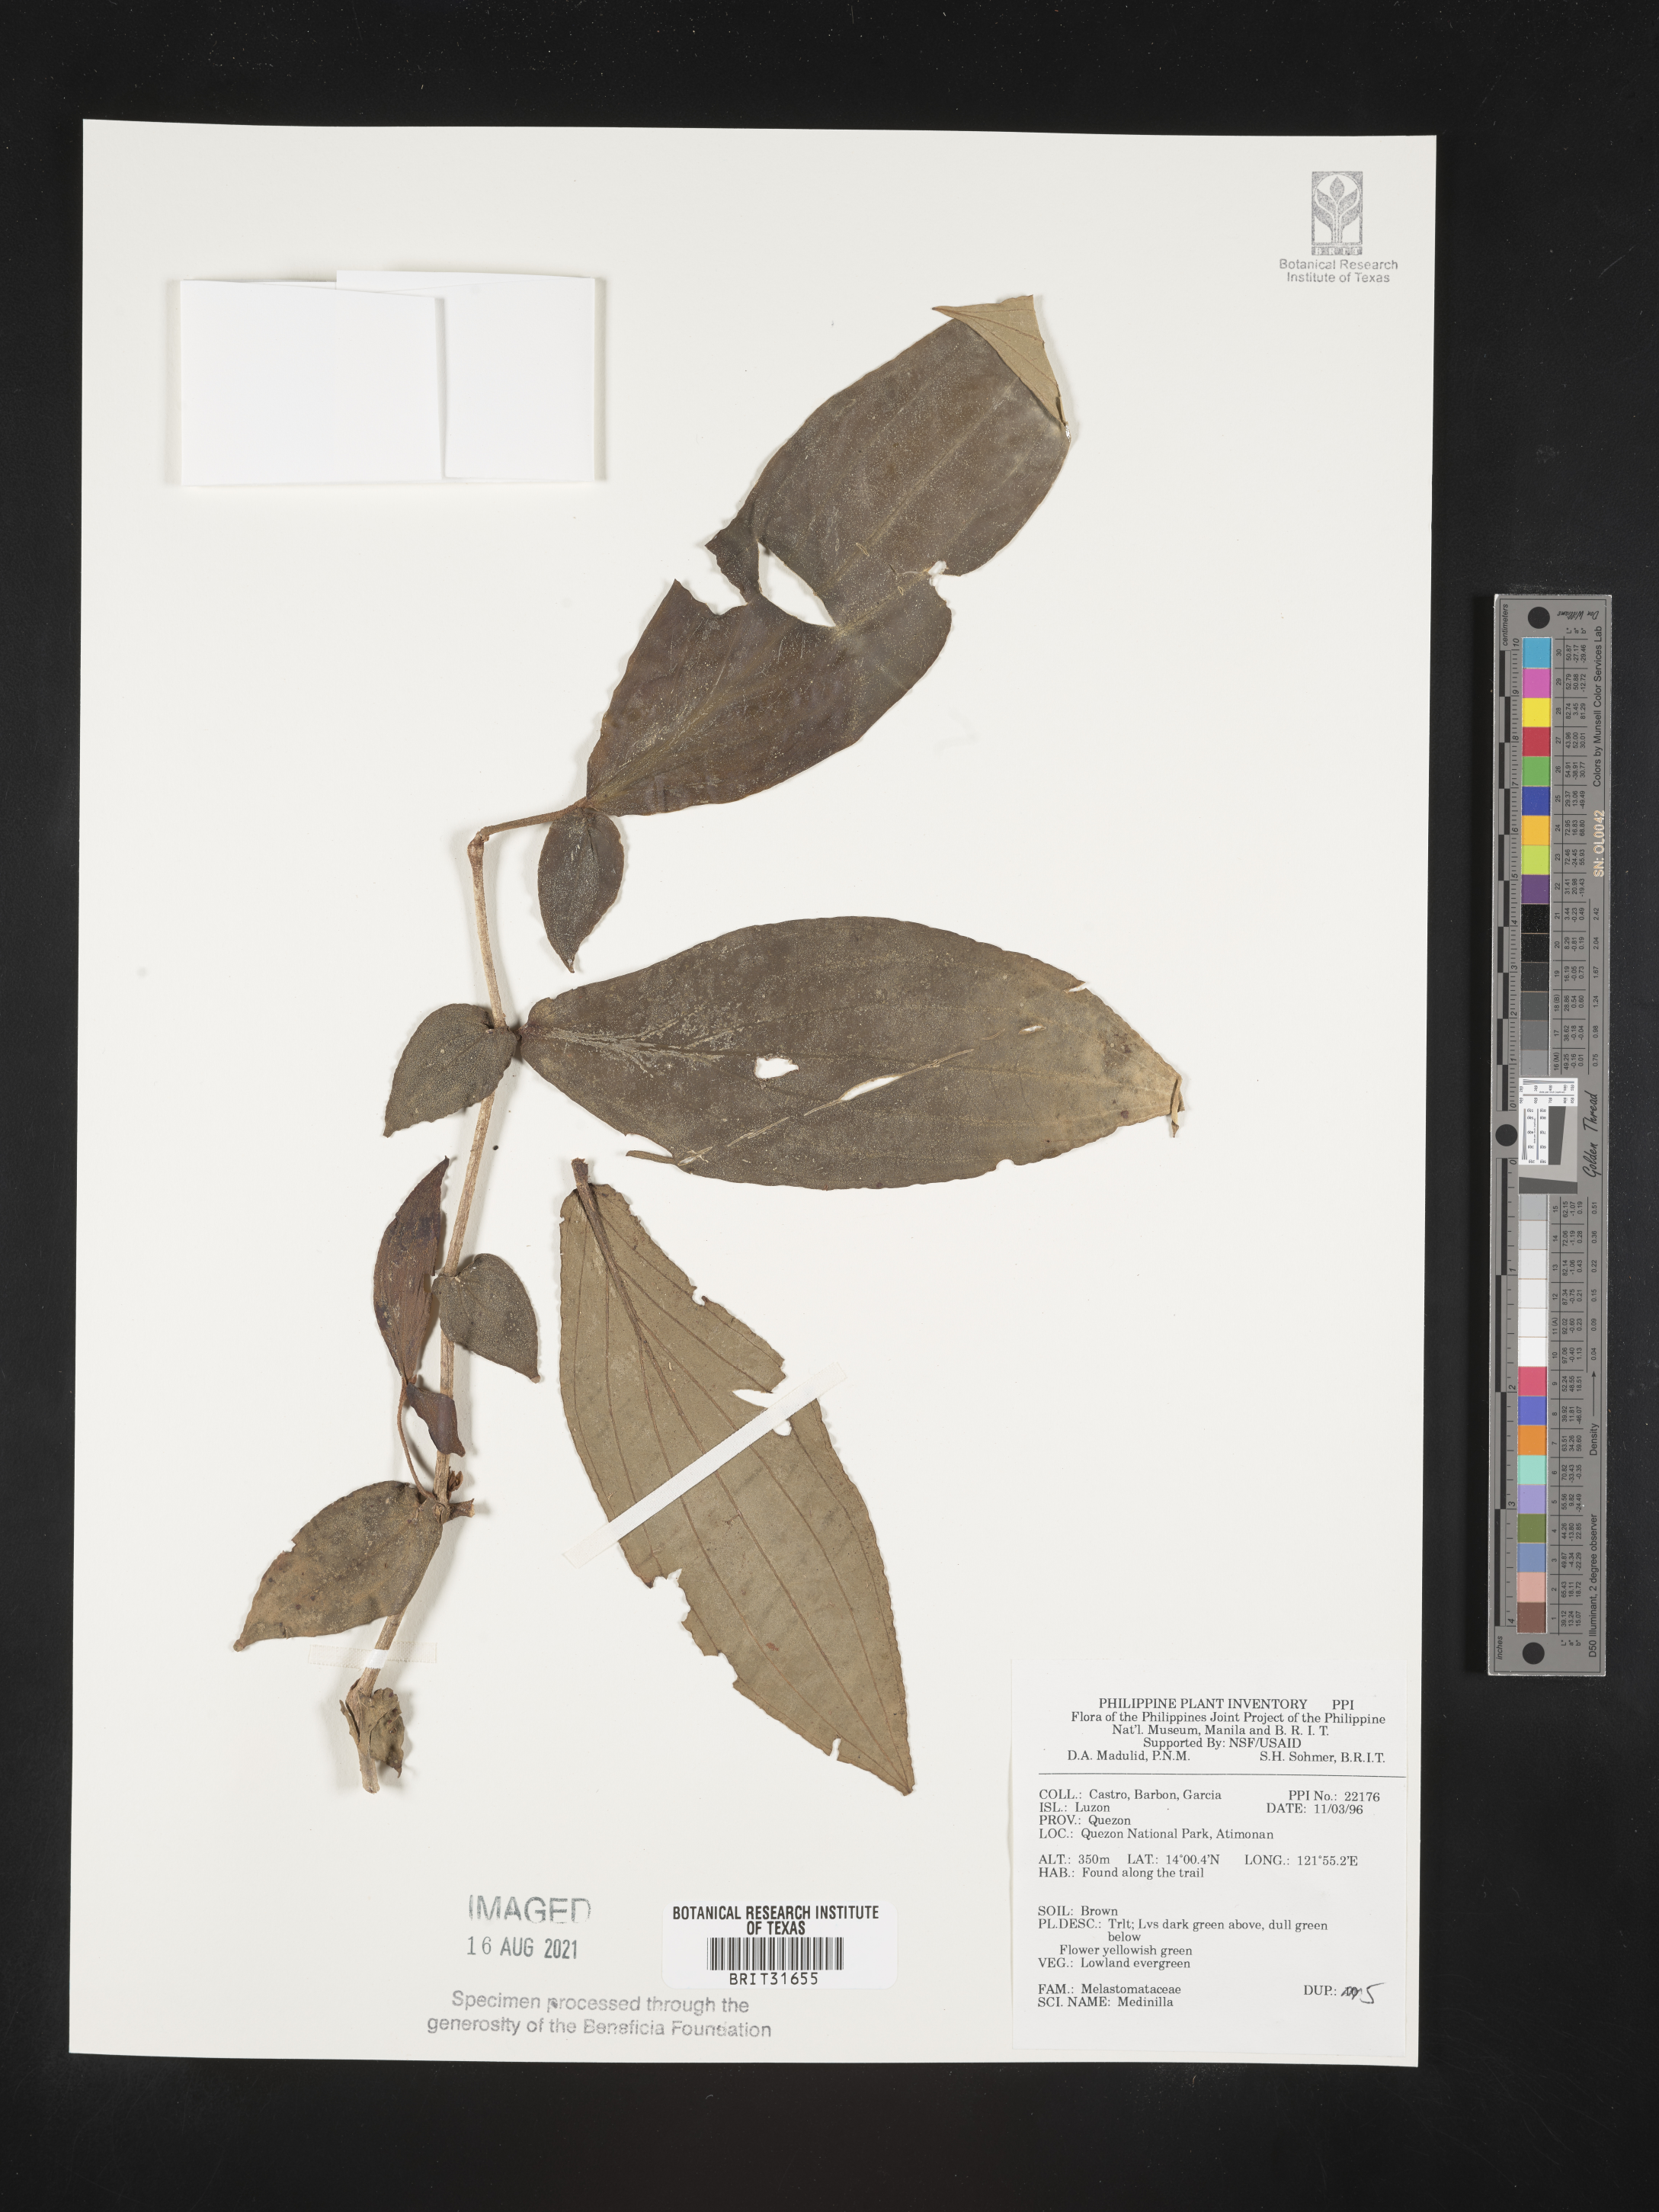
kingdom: Plantae
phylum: Tracheophyta
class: Magnoliopsida
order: Myrtales
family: Melastomataceae
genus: Medinilla
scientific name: Medinilla
